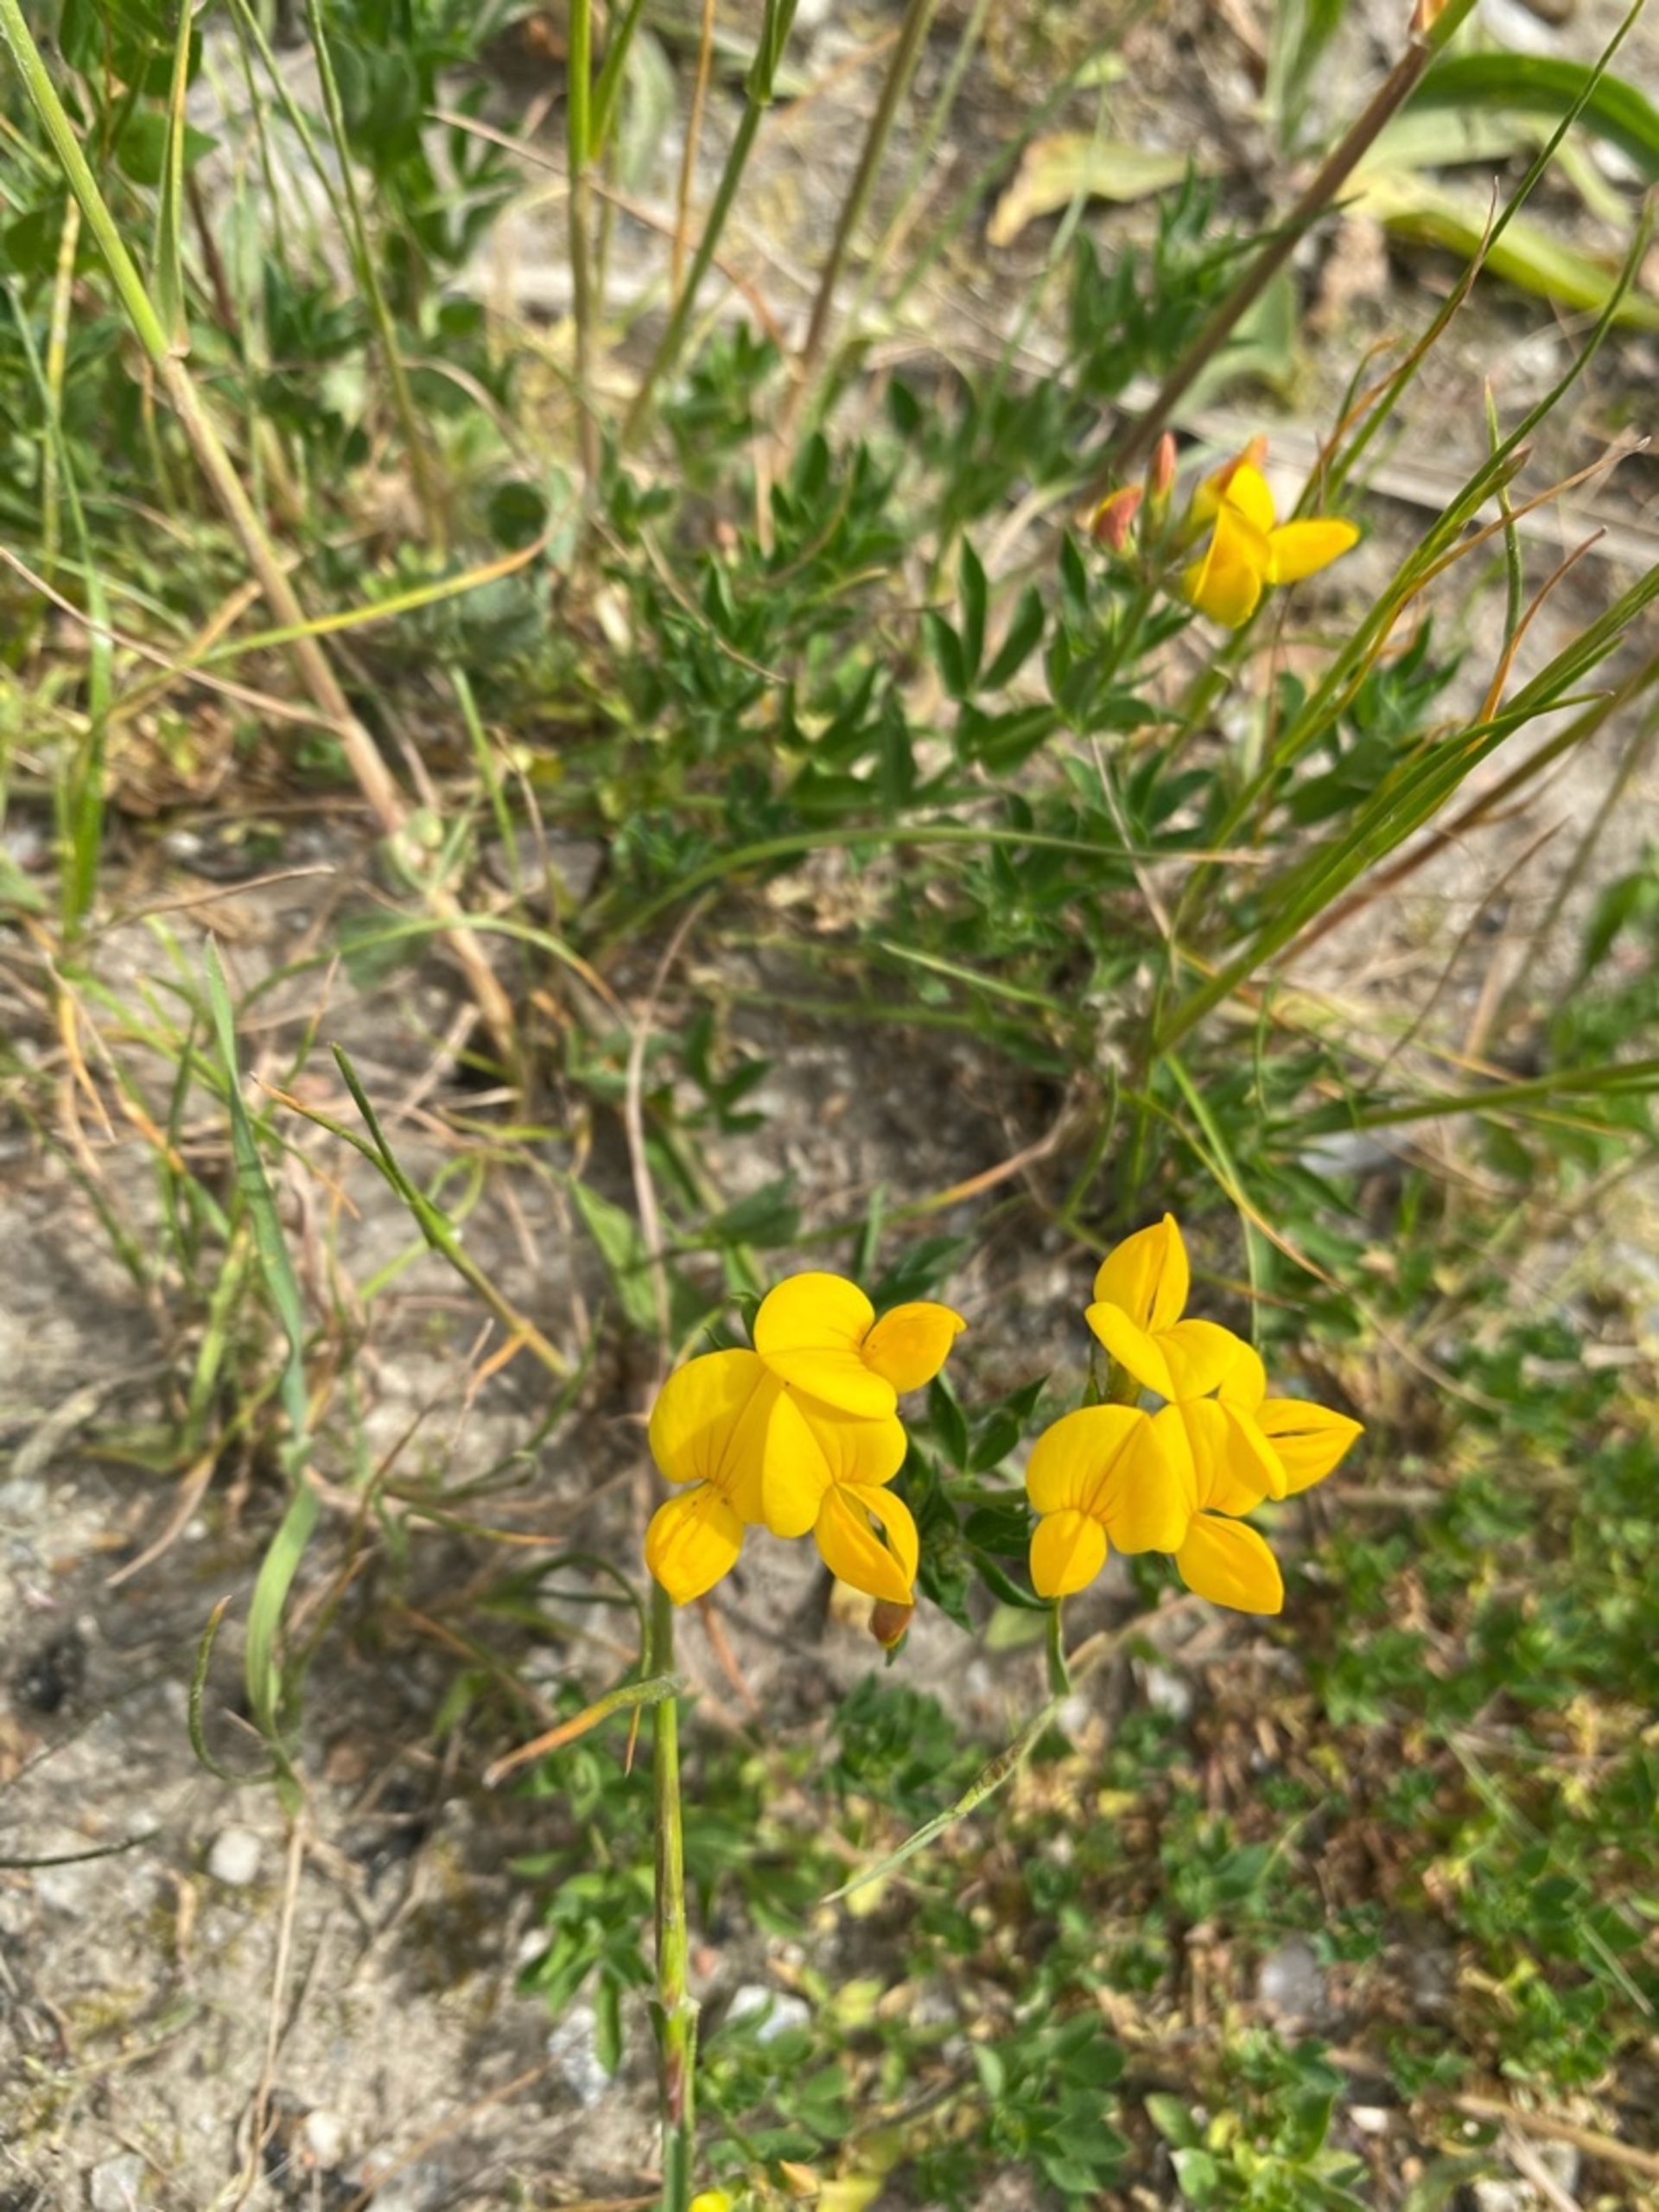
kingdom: Plantae
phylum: Tracheophyta
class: Magnoliopsida
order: Fabales
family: Fabaceae
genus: Lotus
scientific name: Lotus corniculatus
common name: Almindelig kællingetand
